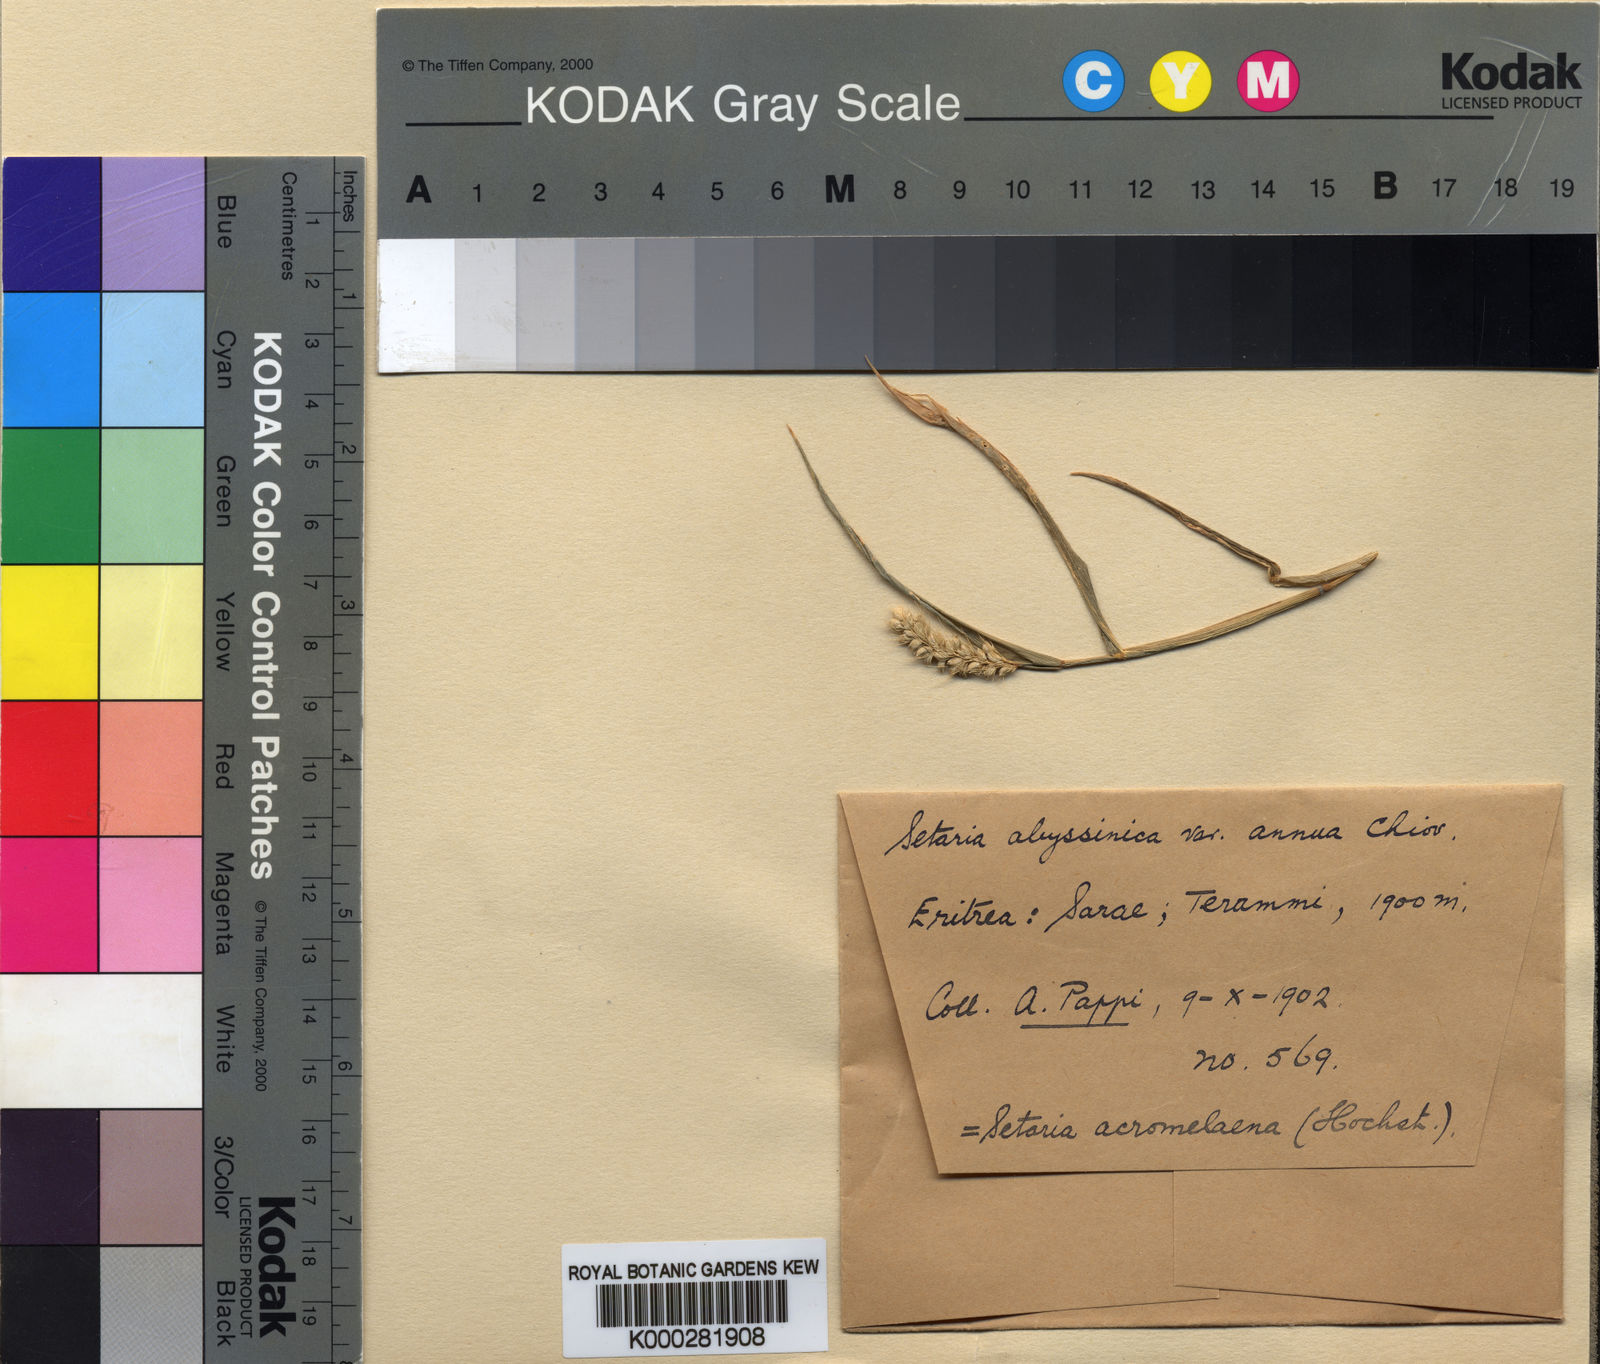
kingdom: Plantae
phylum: Tracheophyta
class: Liliopsida
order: Poales
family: Poaceae
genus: Setaria
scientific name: Setaria
